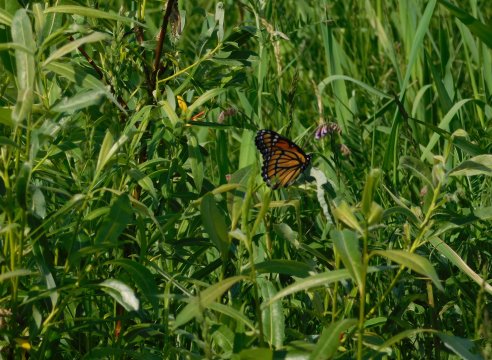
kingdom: Animalia
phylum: Arthropoda
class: Insecta
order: Lepidoptera
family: Nymphalidae
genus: Limenitis
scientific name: Limenitis archippus
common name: Viceroy
